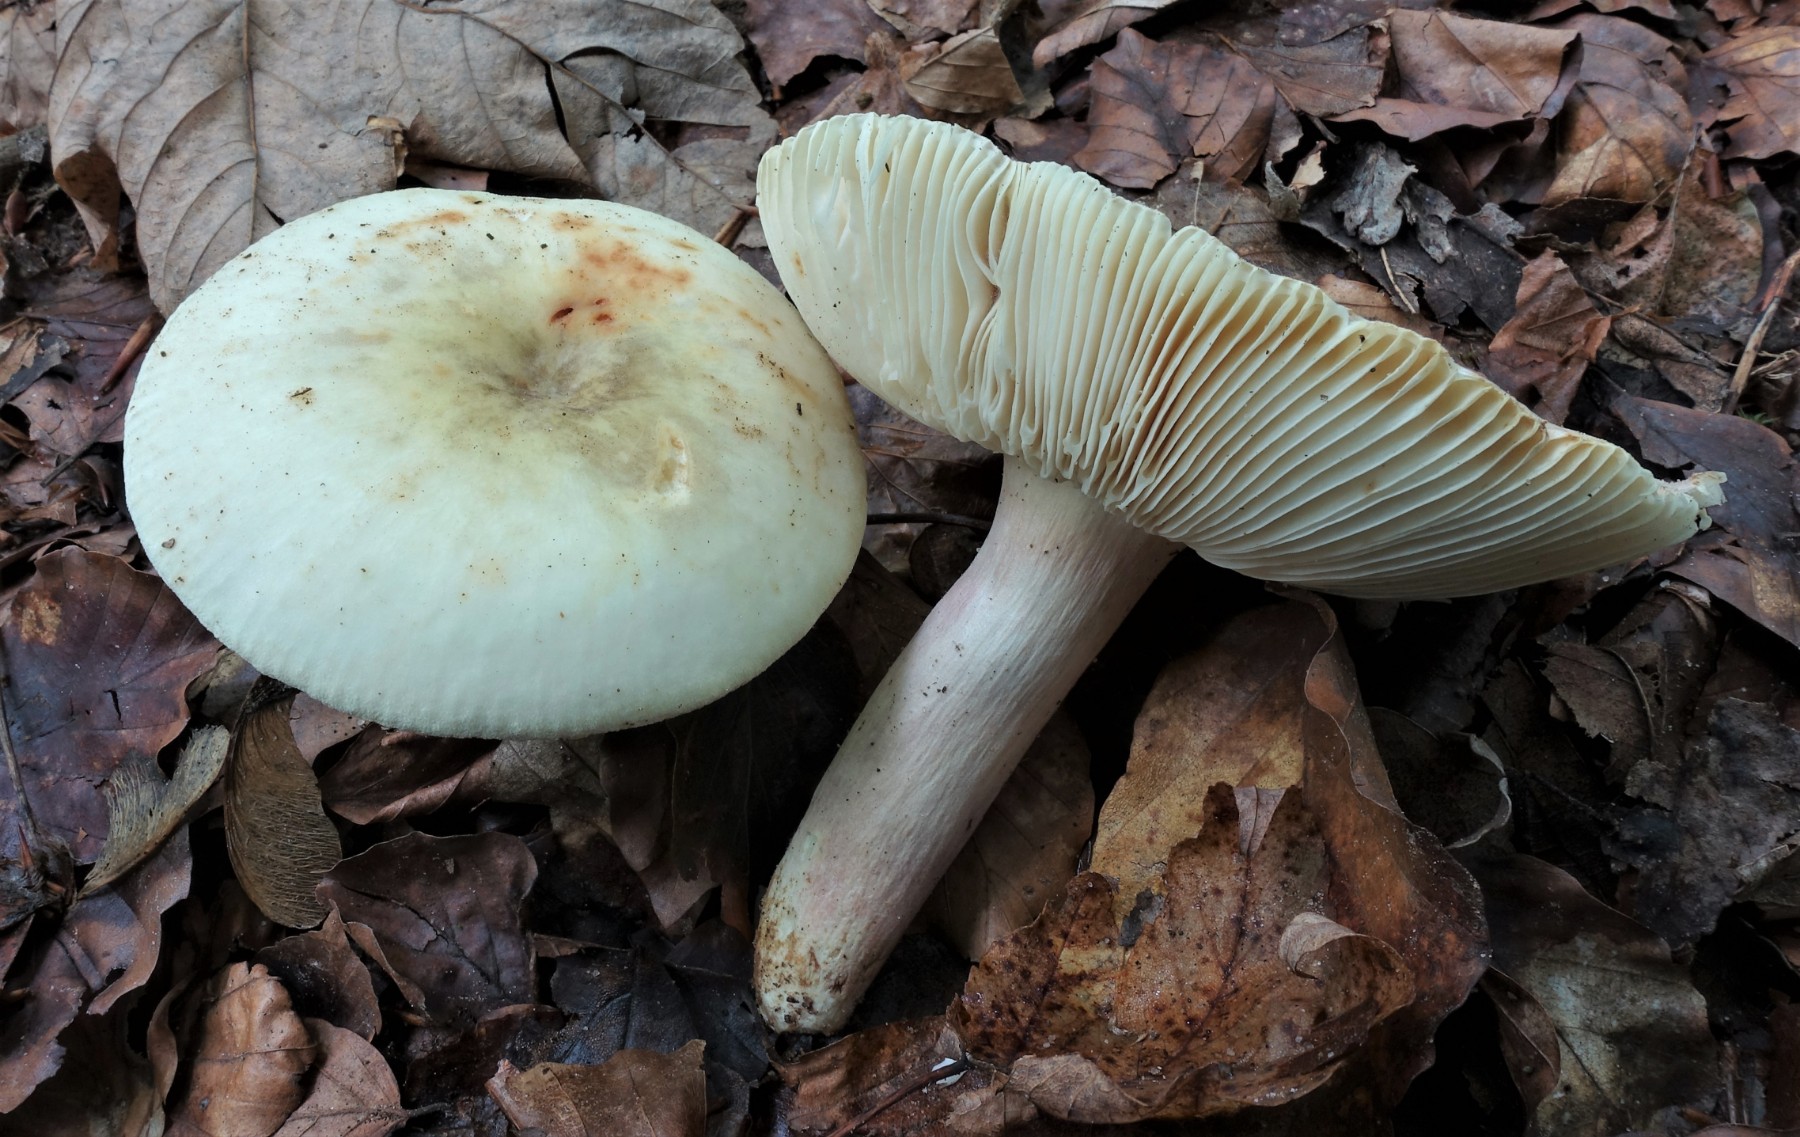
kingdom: Fungi
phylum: Basidiomycota
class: Agaricomycetes
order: Russulales
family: Russulaceae
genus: Russula
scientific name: Russula violeipes
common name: ferskengul skørhat
